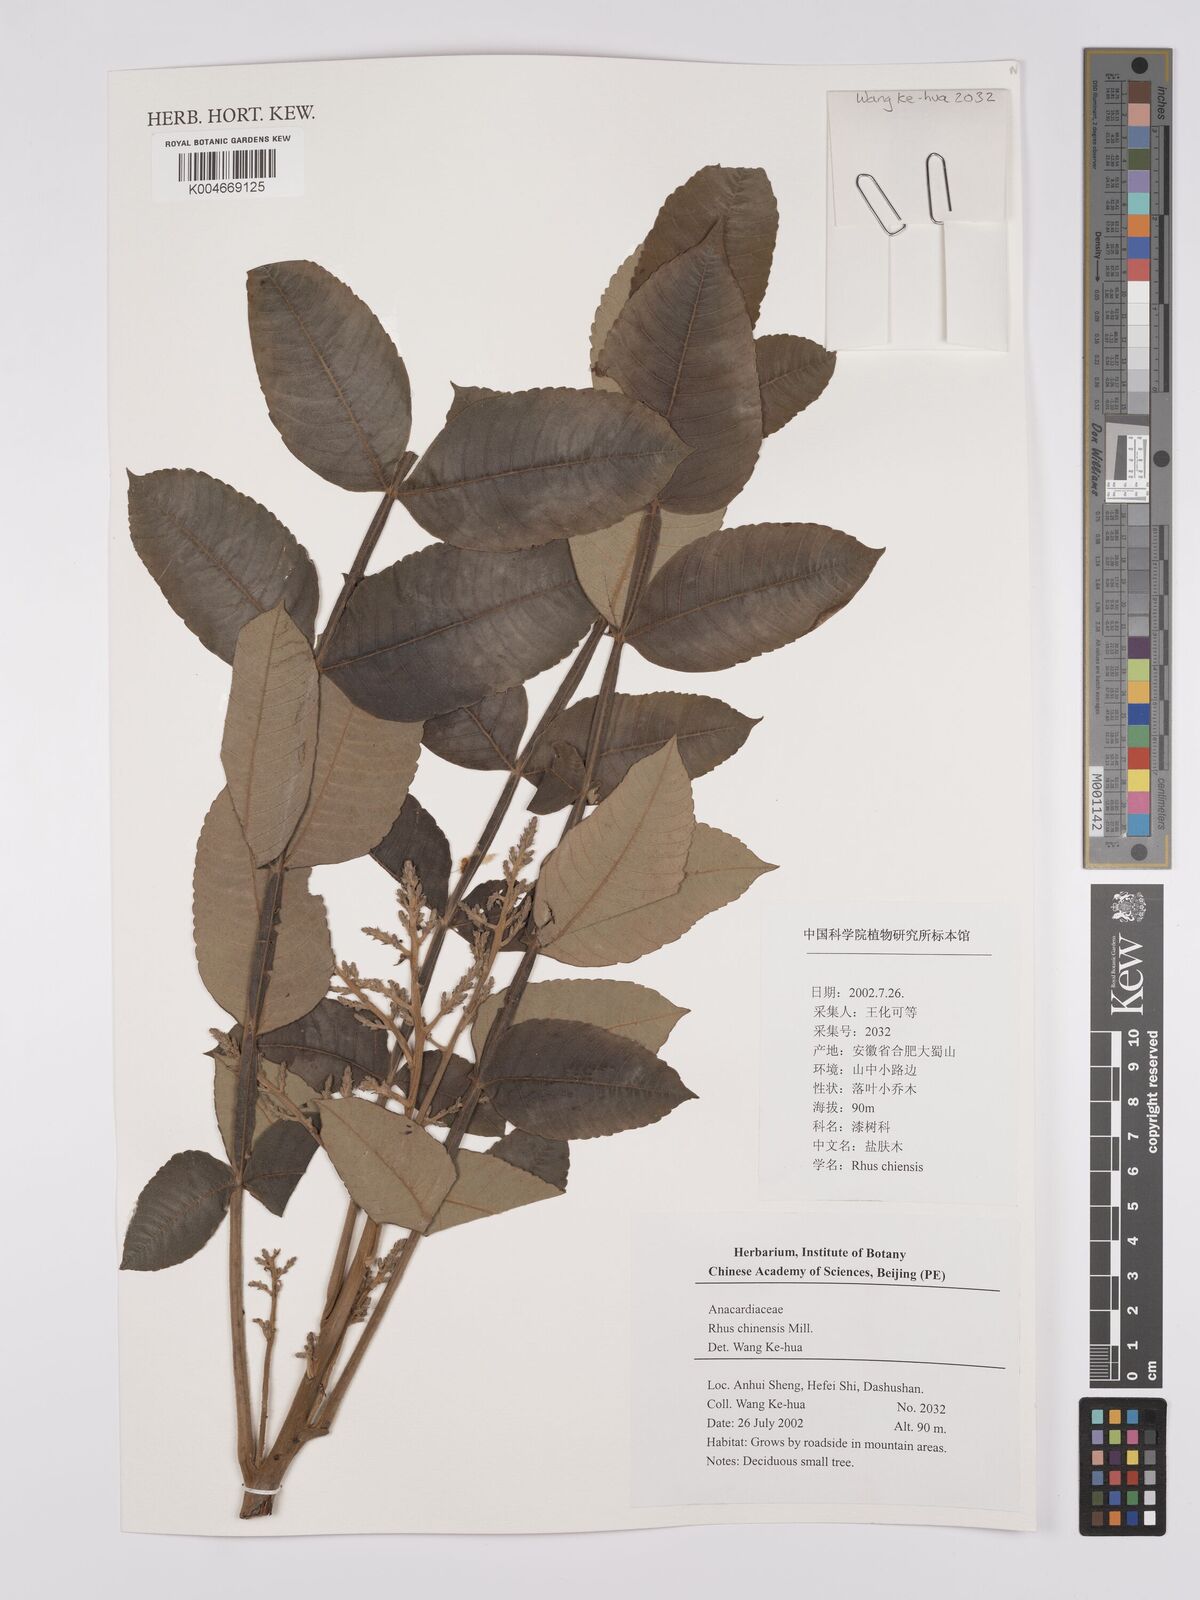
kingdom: Plantae
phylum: Tracheophyta
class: Magnoliopsida
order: Sapindales
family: Anacardiaceae
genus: Rhus
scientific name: Rhus chinensis
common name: Chinese gall
